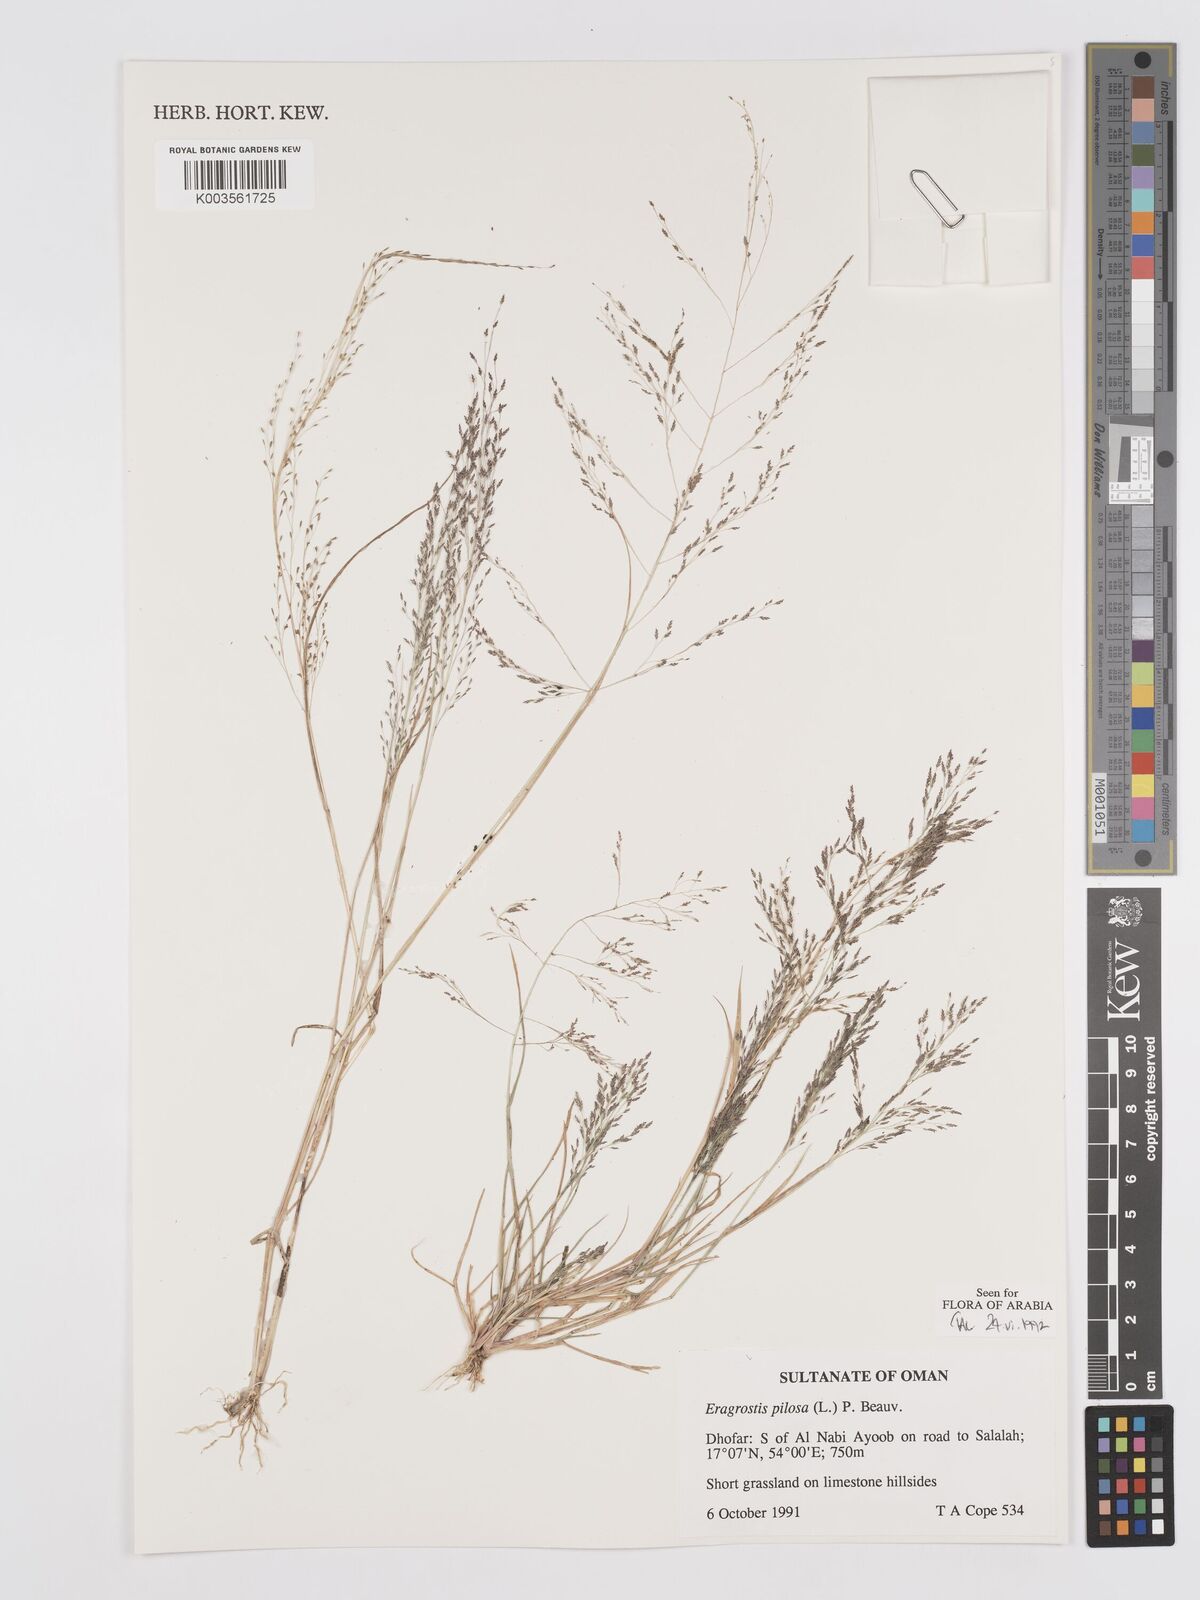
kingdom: Plantae
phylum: Tracheophyta
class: Liliopsida
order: Poales
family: Poaceae
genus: Eragrostis
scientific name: Eragrostis pilosa
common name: Indian lovegrass
